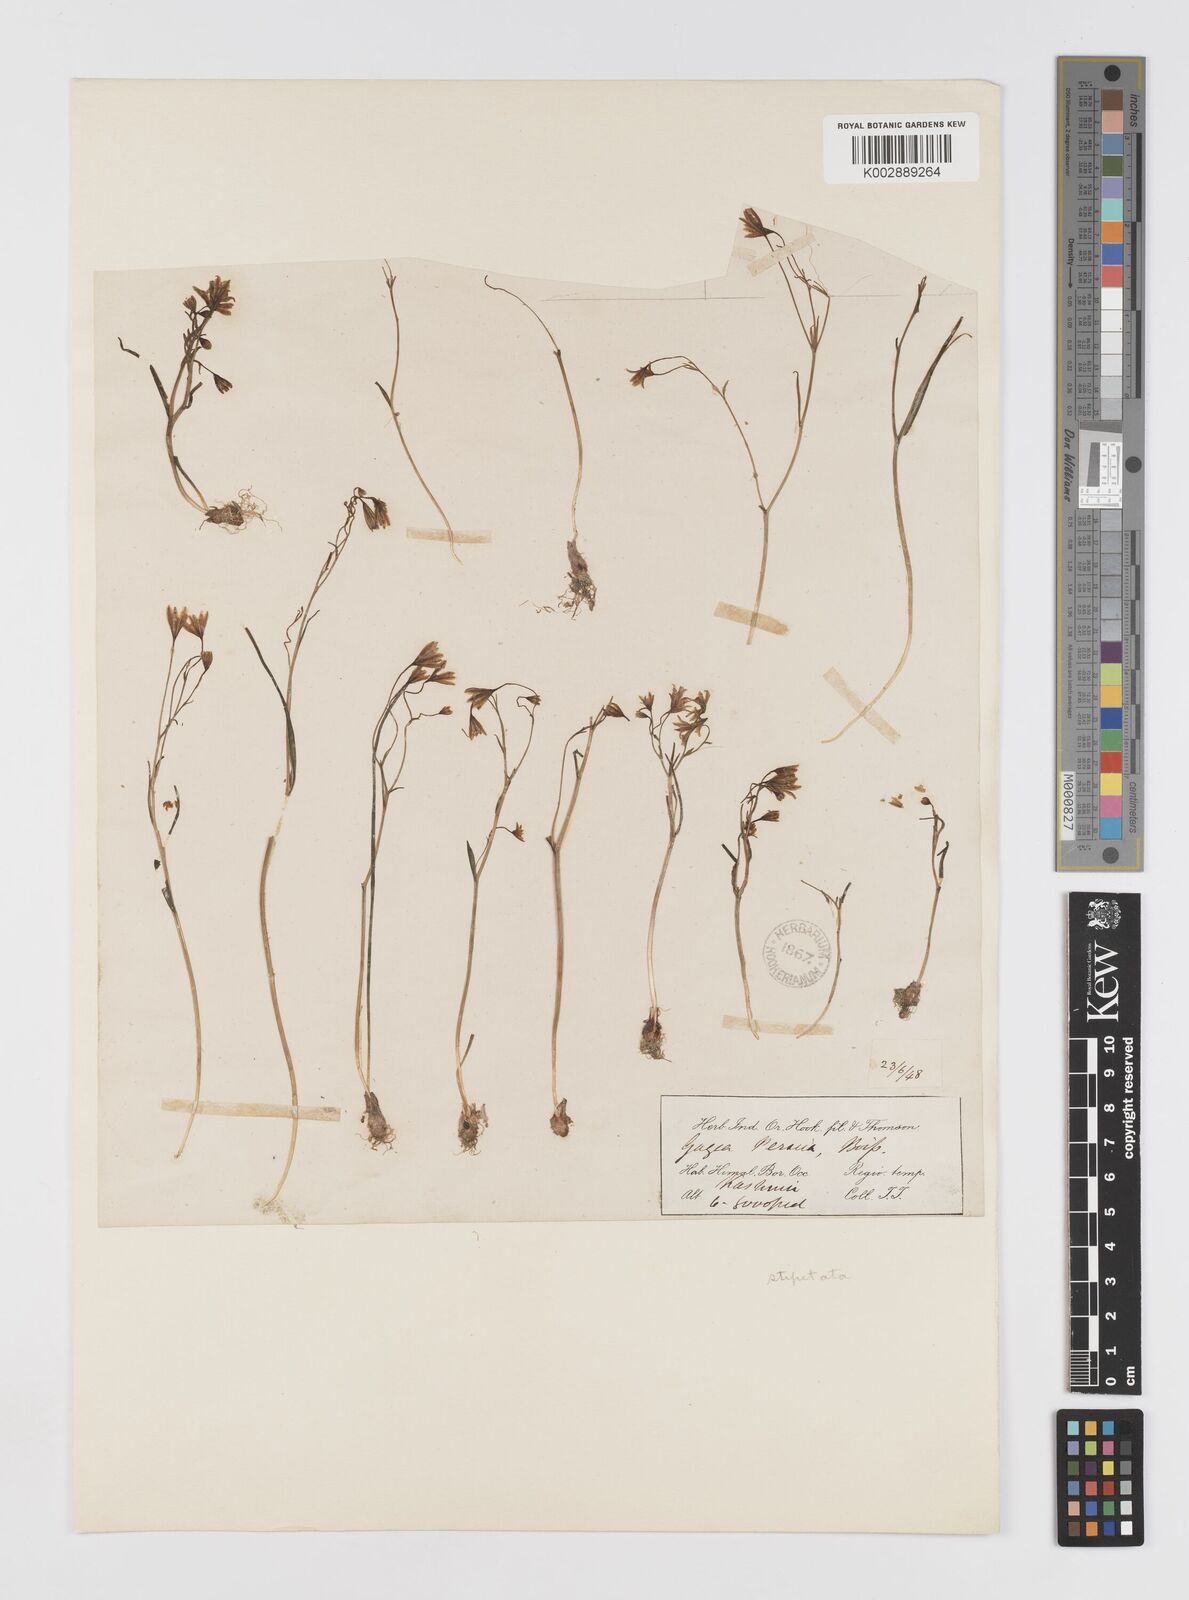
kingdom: Plantae
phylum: Tracheophyta
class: Liliopsida
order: Liliales
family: Liliaceae
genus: Gagea
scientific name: Gagea kunawurensis
